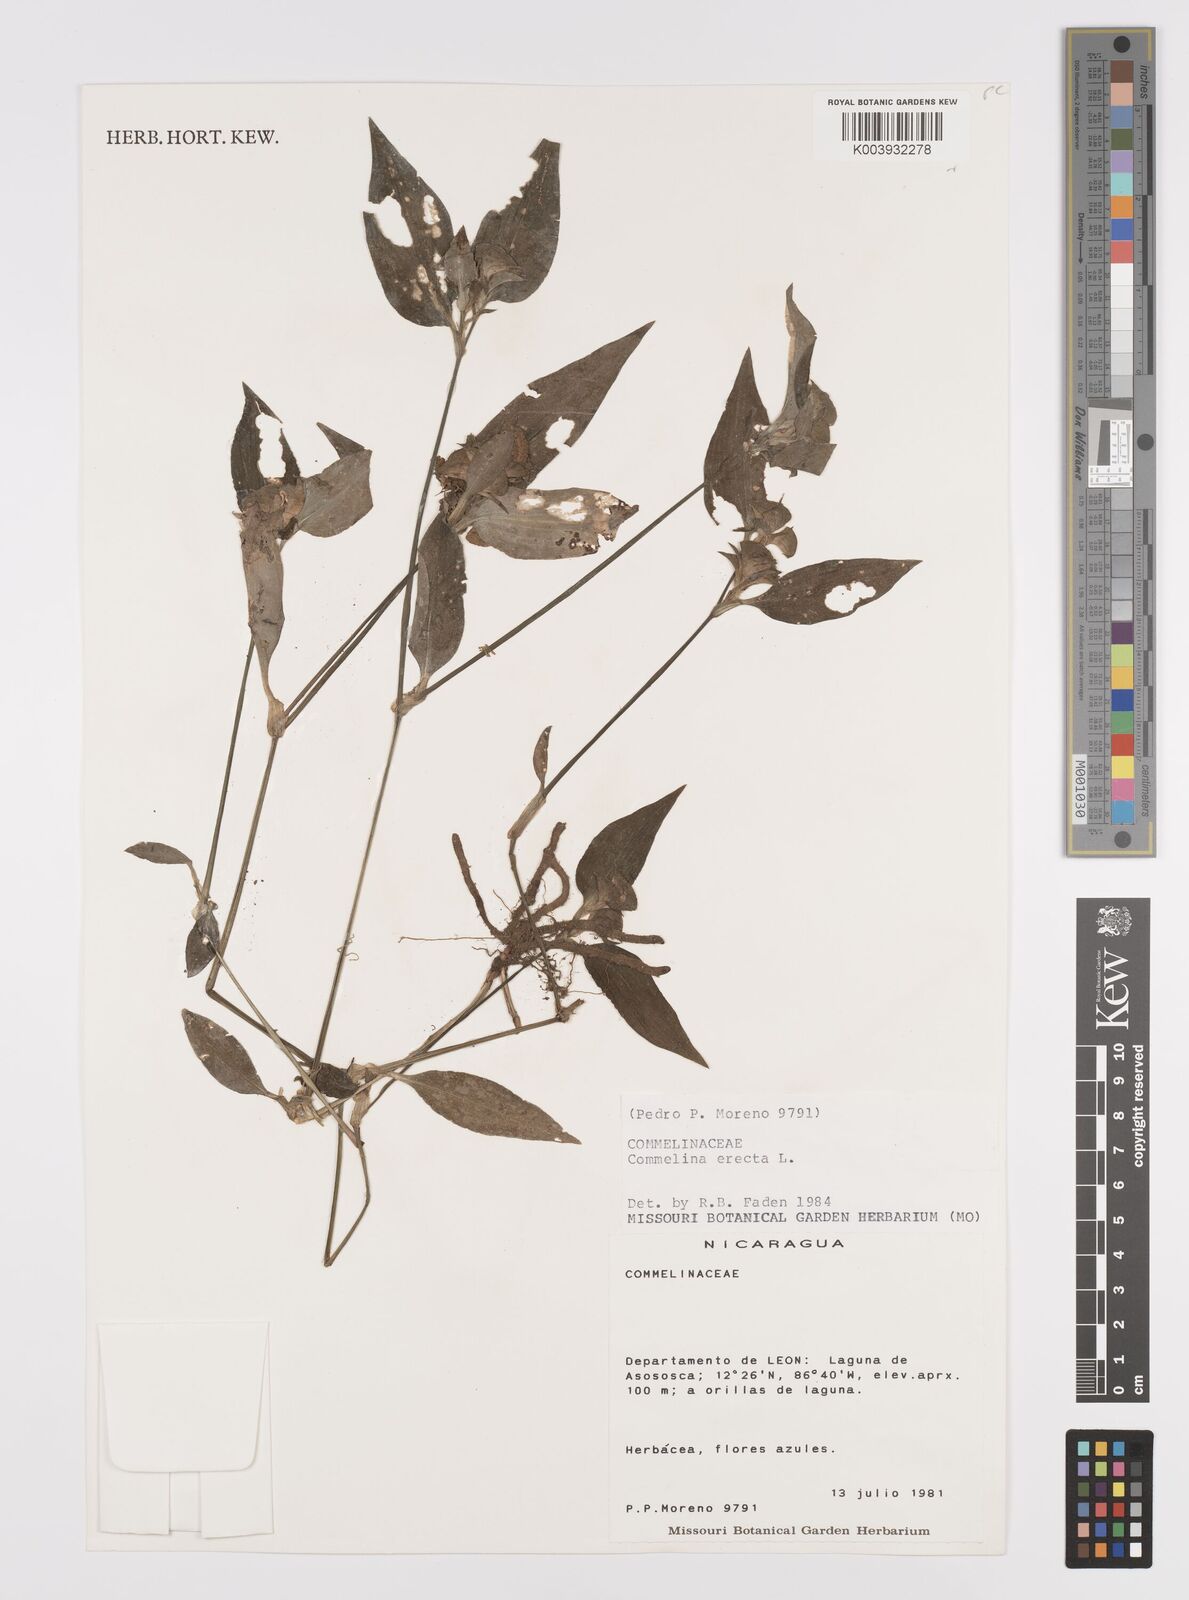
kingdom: Plantae
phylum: Tracheophyta
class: Liliopsida
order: Commelinales
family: Commelinaceae
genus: Commelina
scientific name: Commelina erecta
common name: Blousel blommetjie
